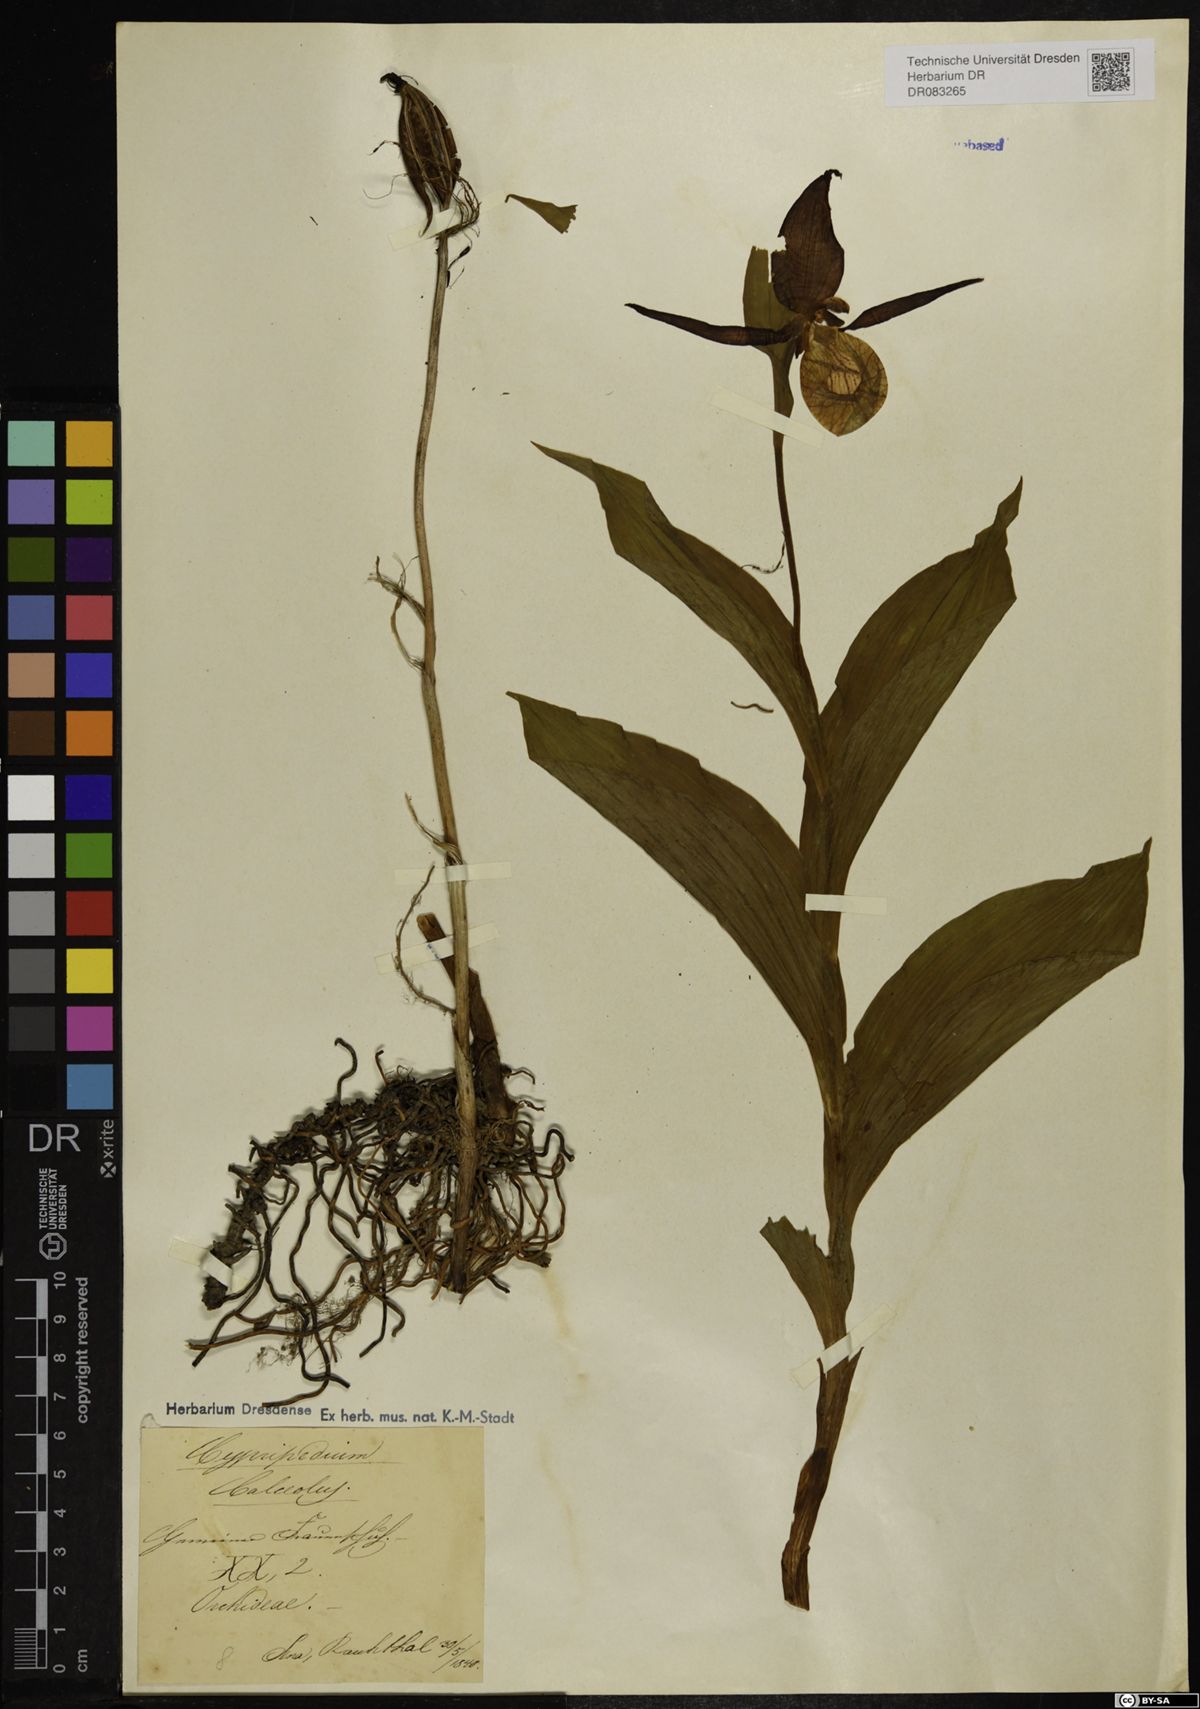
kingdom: Plantae
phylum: Tracheophyta
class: Liliopsida
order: Asparagales
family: Orchidaceae
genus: Cypripedium
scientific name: Cypripedium calceolus
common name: Lady's-slipper
